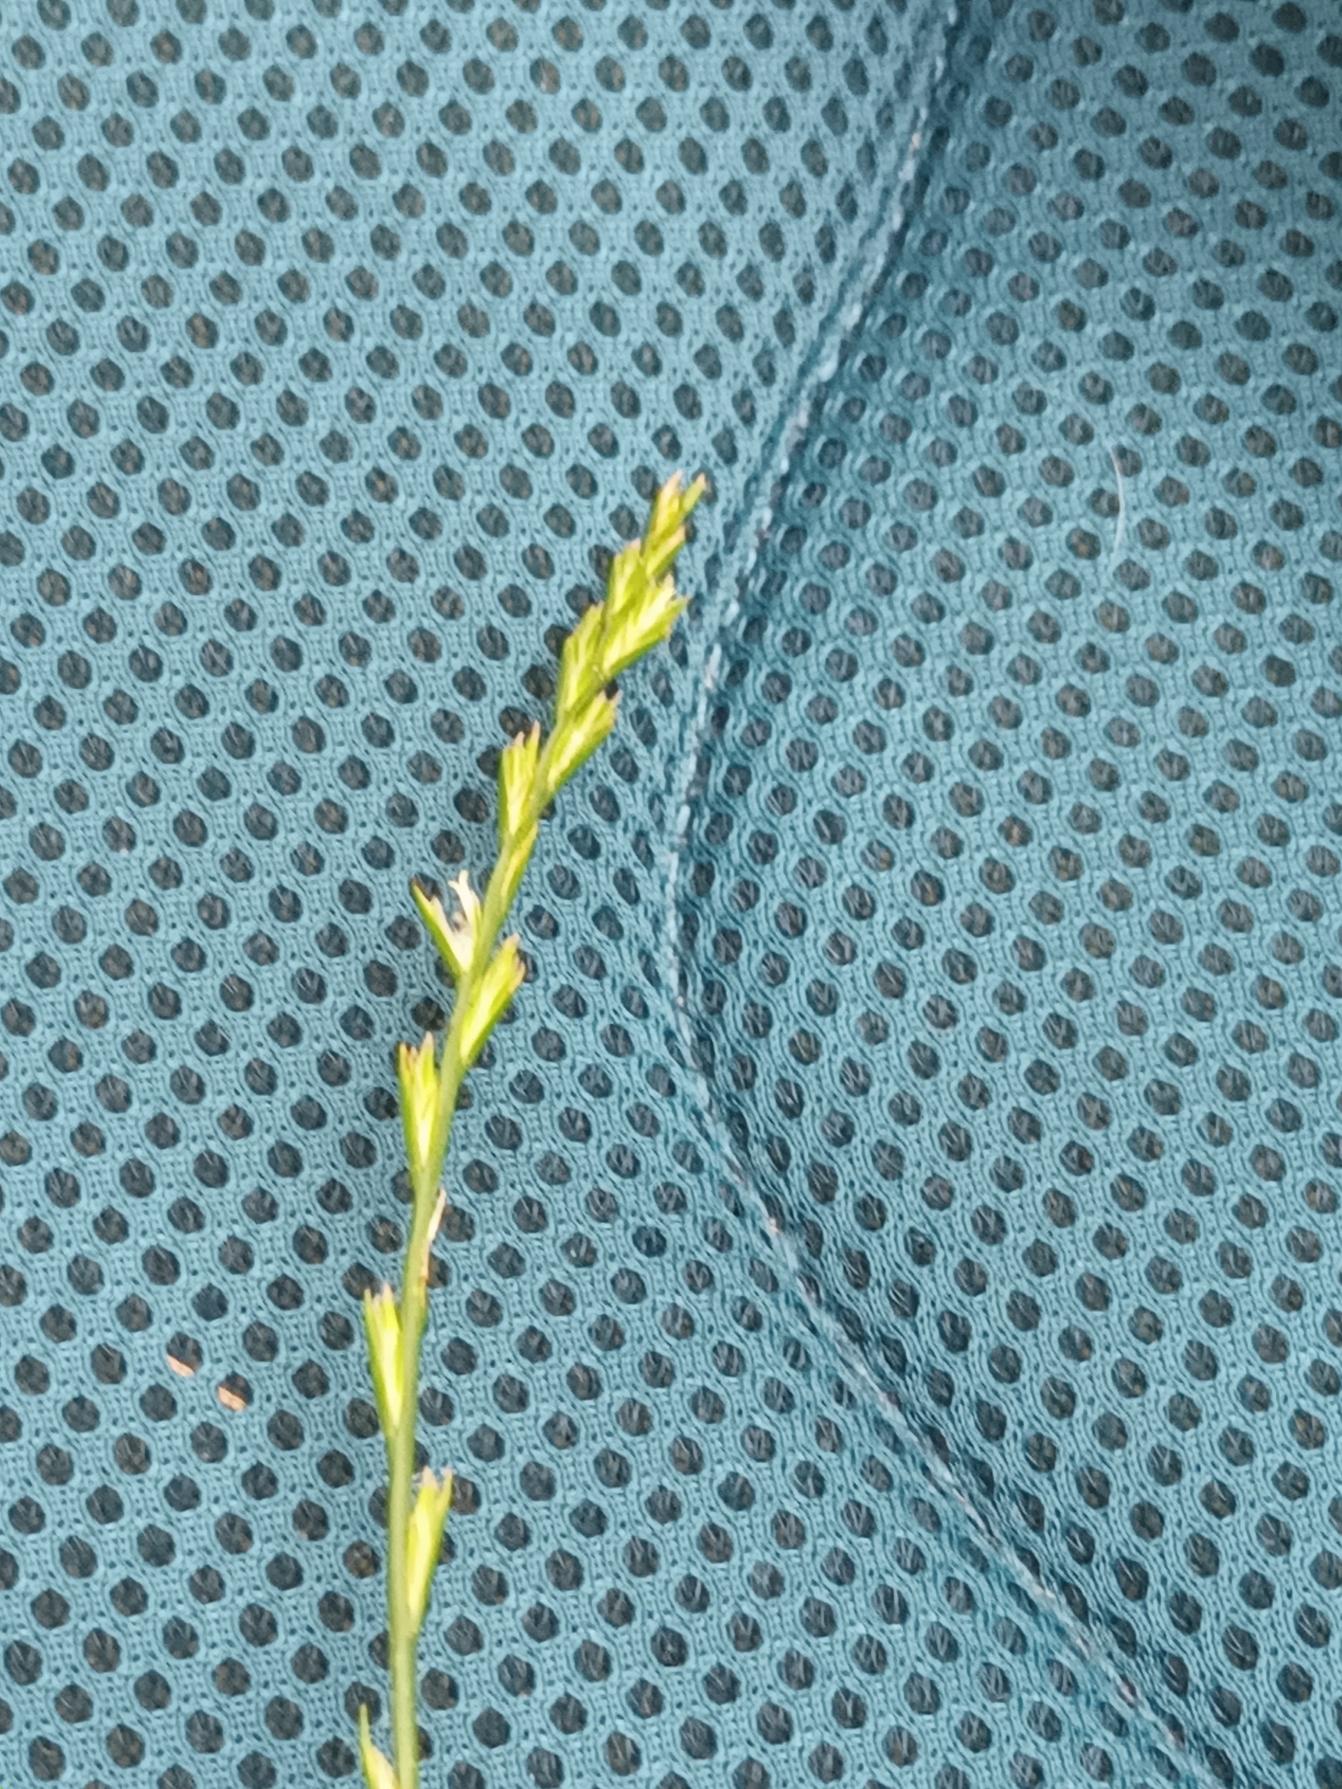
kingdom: Plantae
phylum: Tracheophyta
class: Liliopsida
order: Poales
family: Poaceae
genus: Lolium
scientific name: Lolium perenne
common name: Almindelig rajgræs
